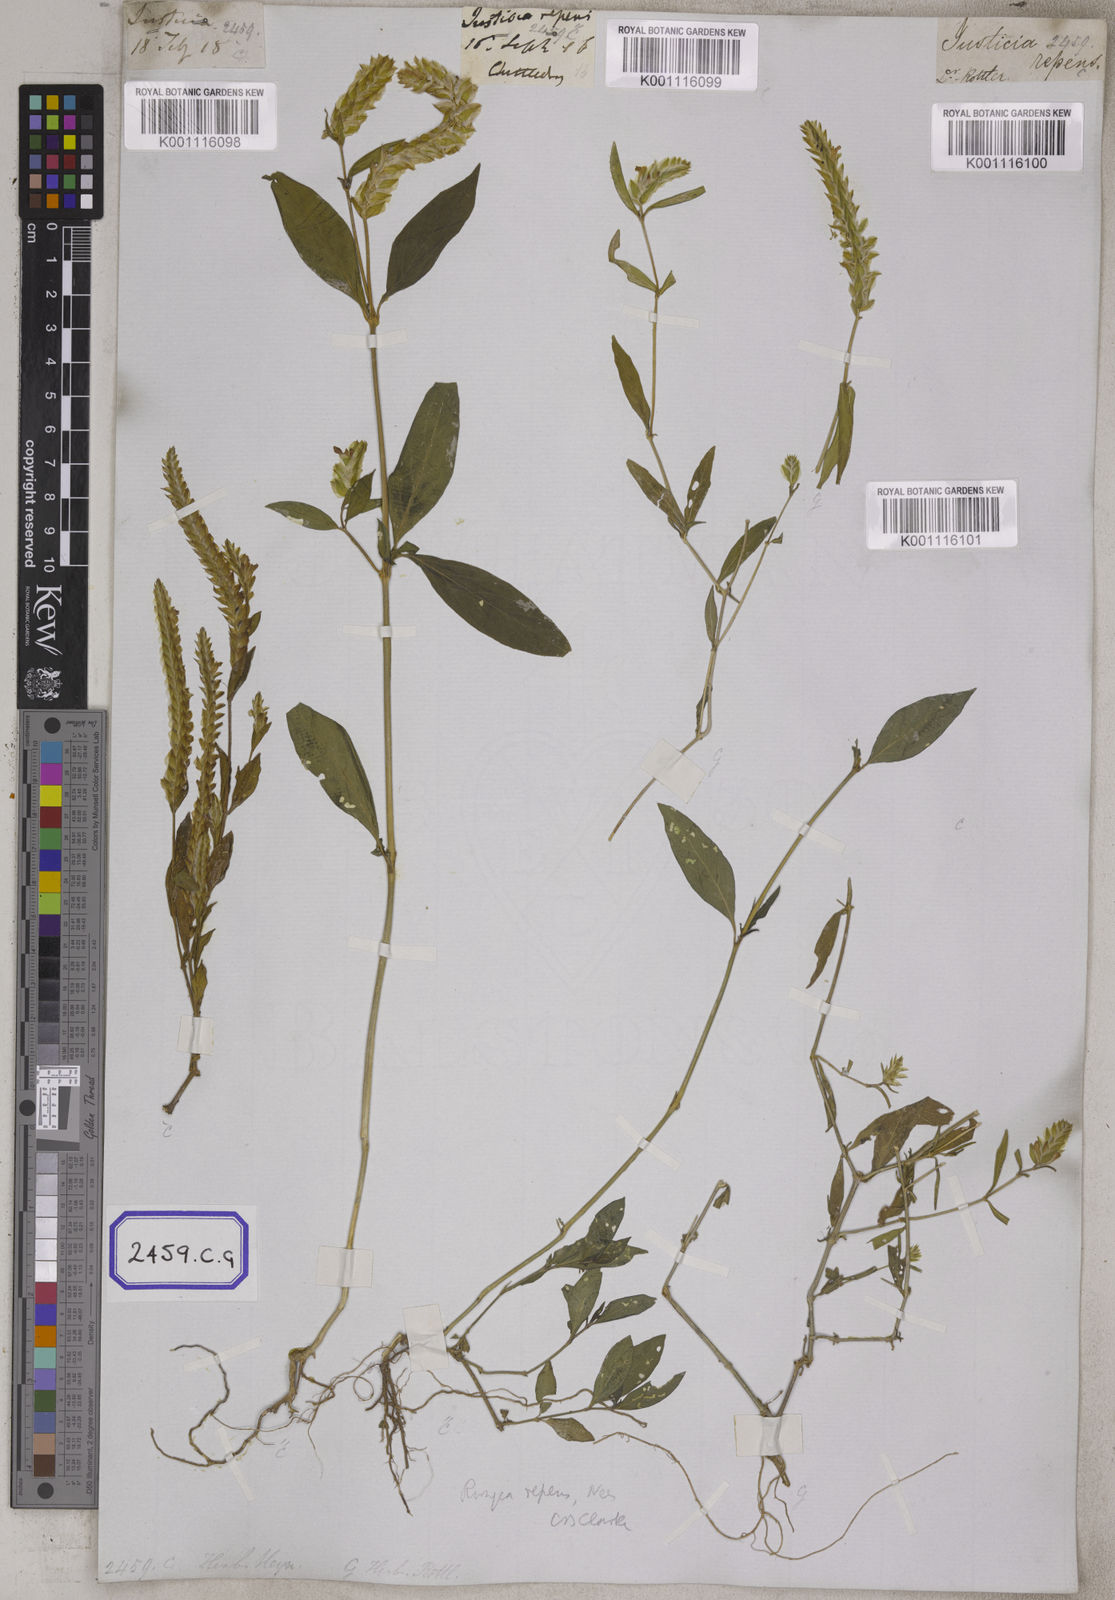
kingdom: Plantae
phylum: Tracheophyta
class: Magnoliopsida
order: Lamiales
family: Acanthaceae
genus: Justicia
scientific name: Justicia
